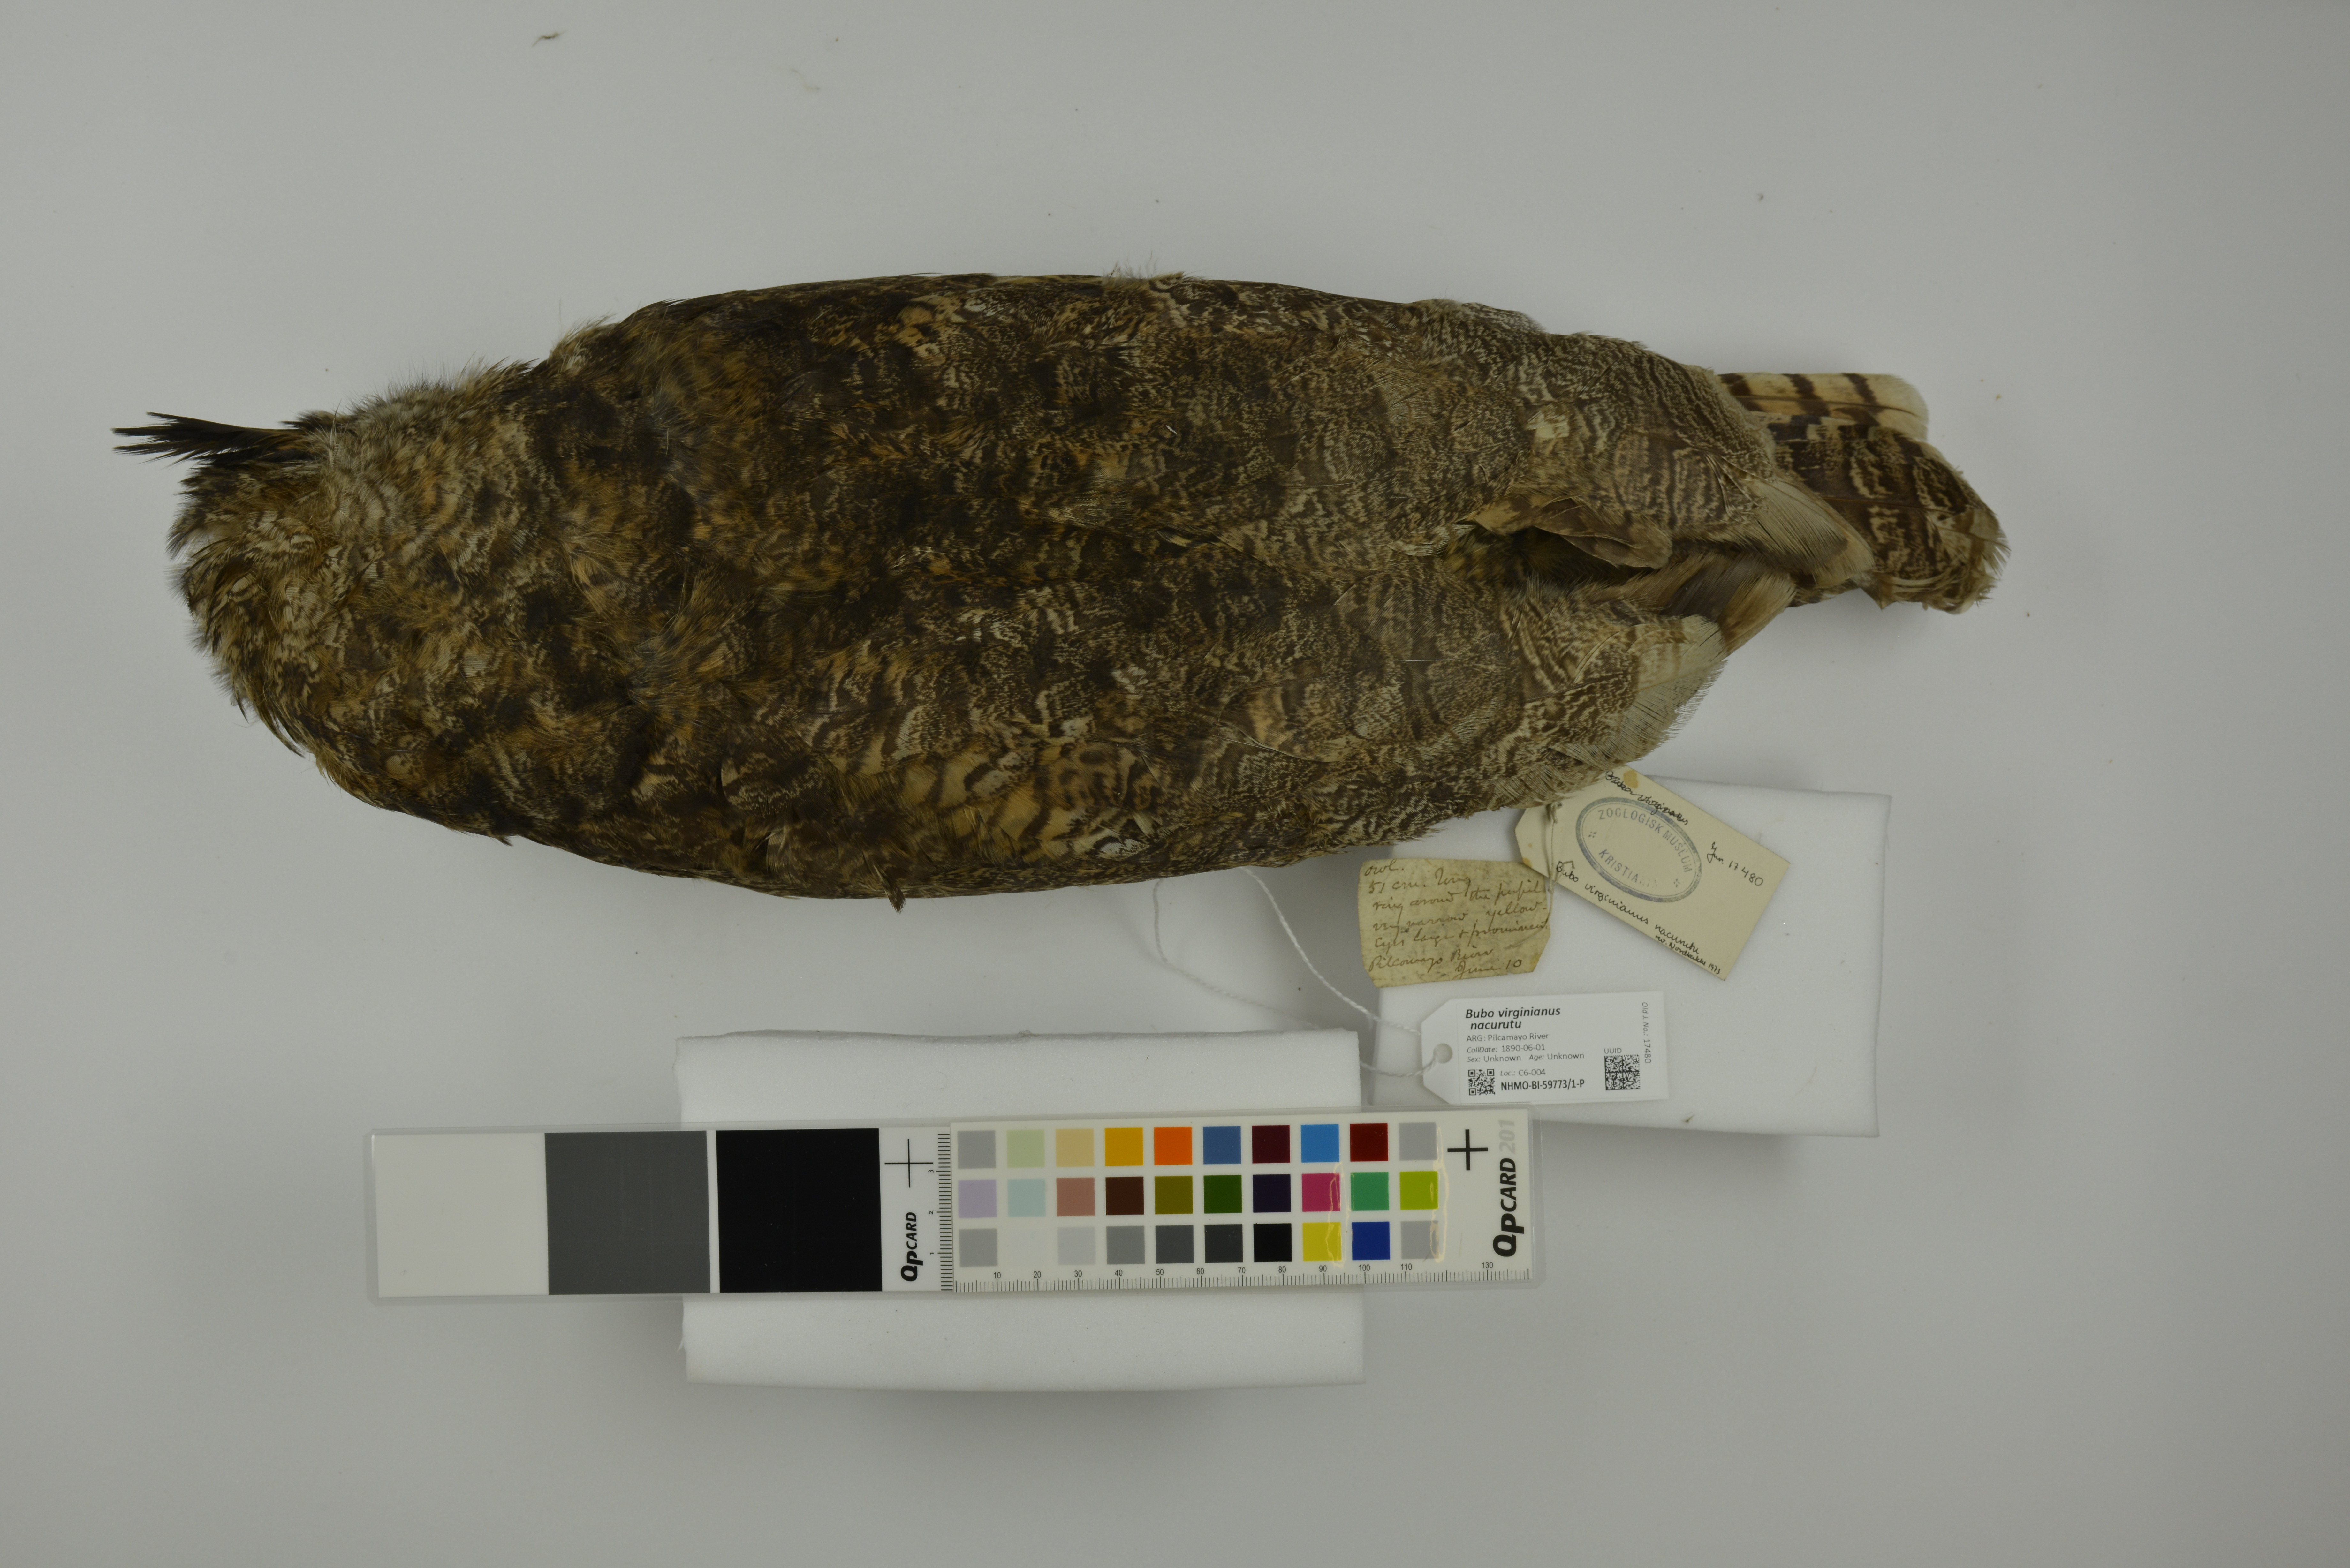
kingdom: Animalia
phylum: Chordata
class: Aves
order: Strigiformes
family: Strigidae
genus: Bubo
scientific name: Bubo virginianus
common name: Great horned owl
